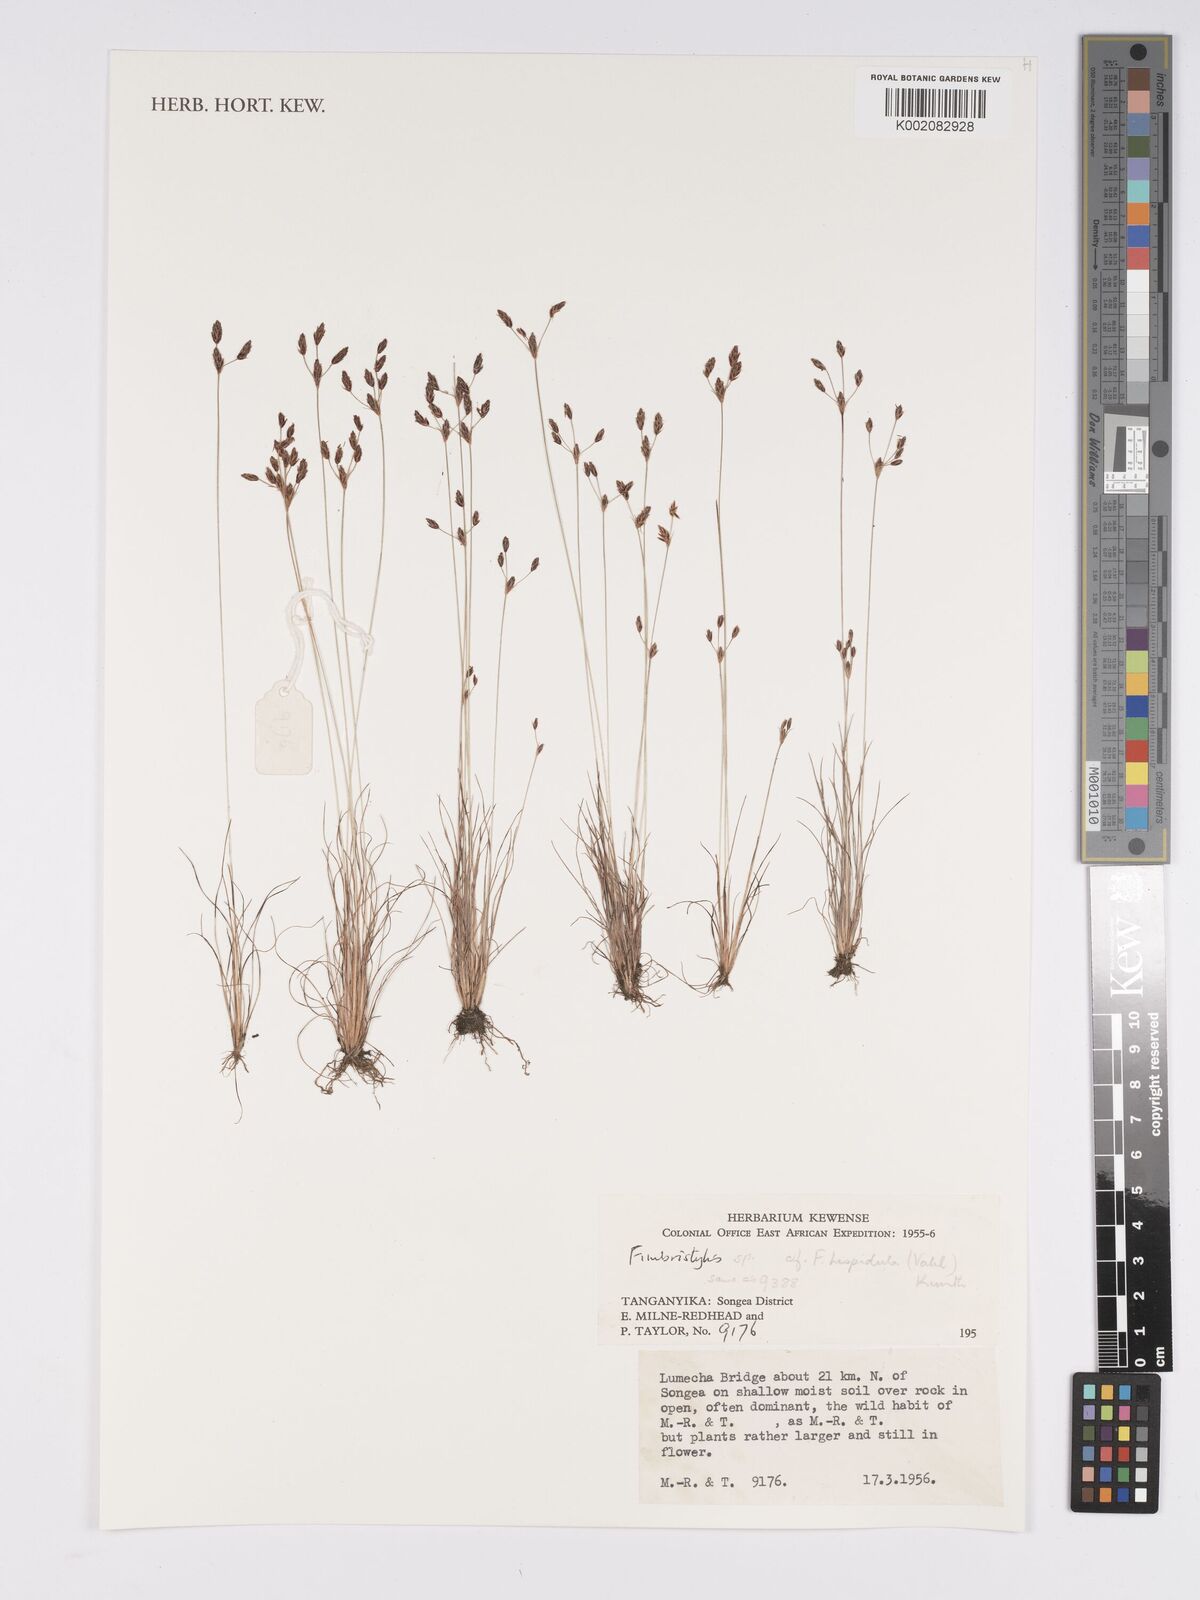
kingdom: Plantae
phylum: Tracheophyta
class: Liliopsida
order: Poales
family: Cyperaceae
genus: Bulbostylis
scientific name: Bulbostylis hispidula
